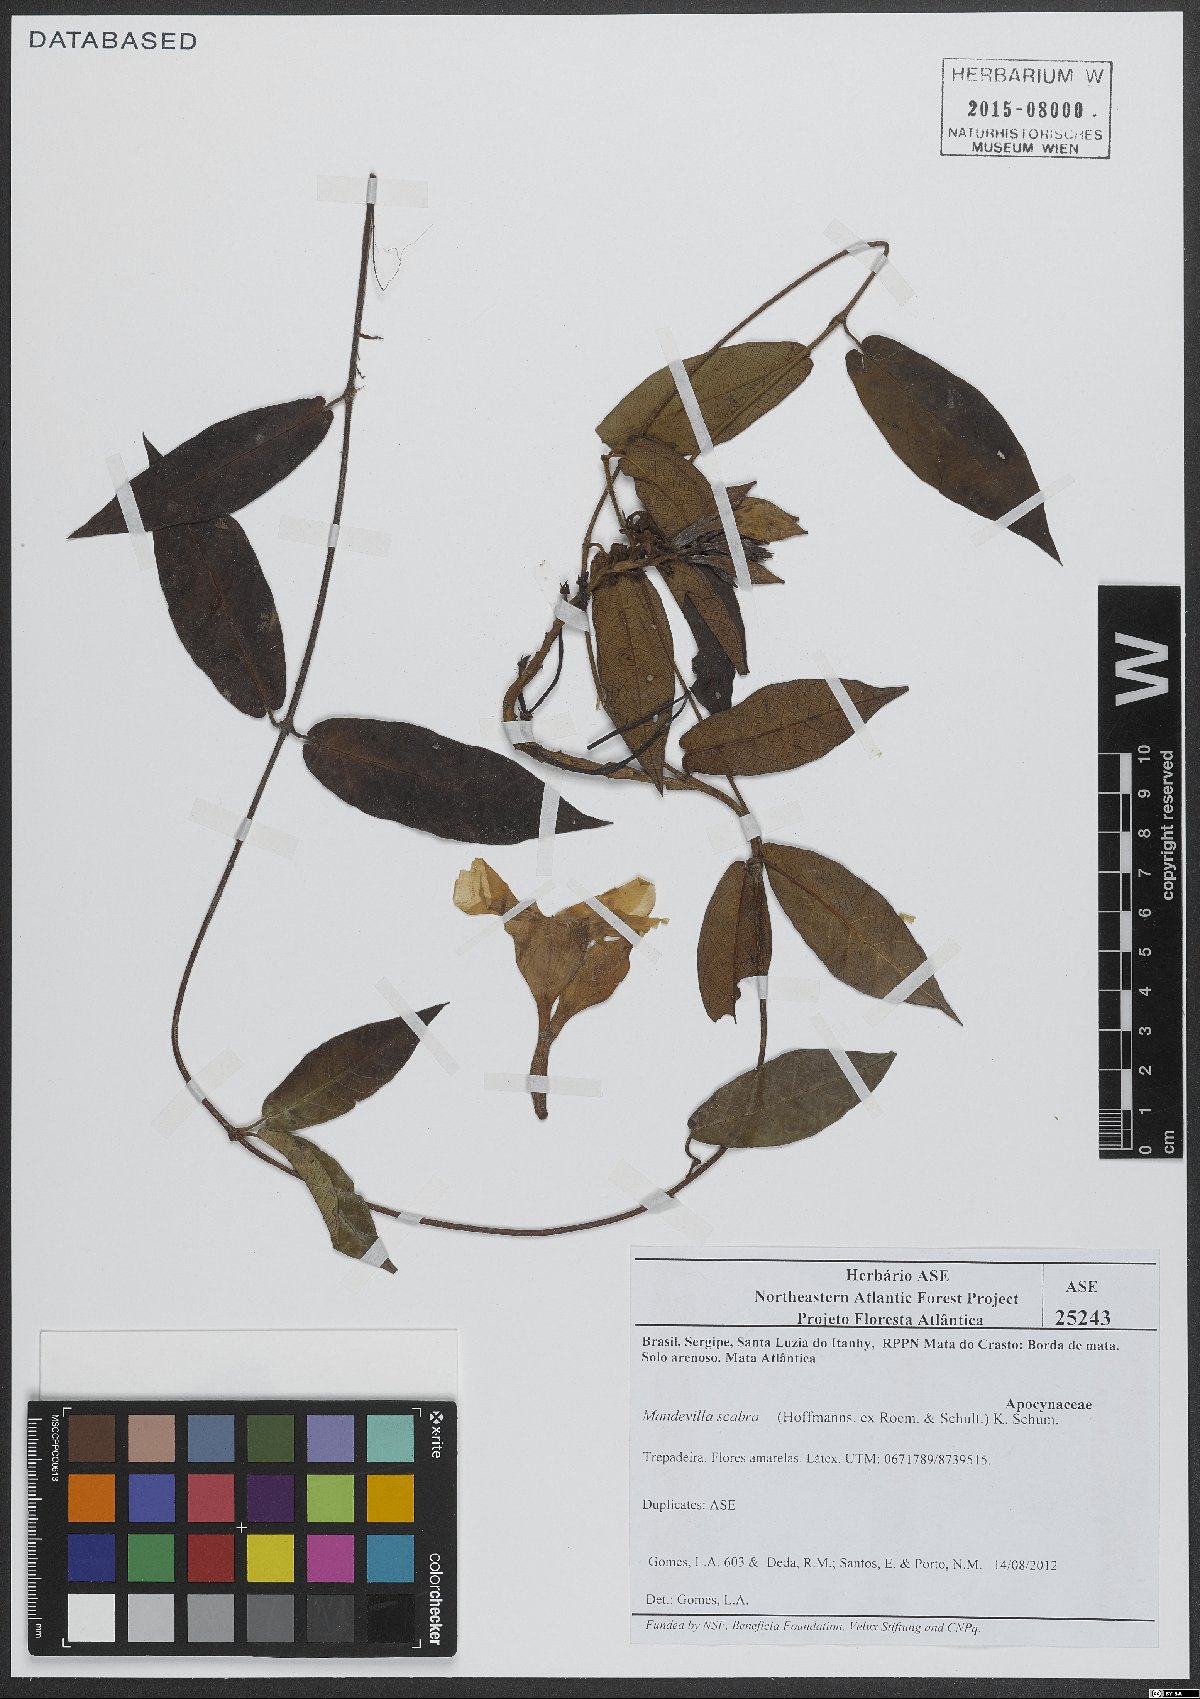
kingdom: Plantae
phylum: Tracheophyta
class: Magnoliopsida
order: Gentianales
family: Apocynaceae
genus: Mandevilla
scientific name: Mandevilla scabra
